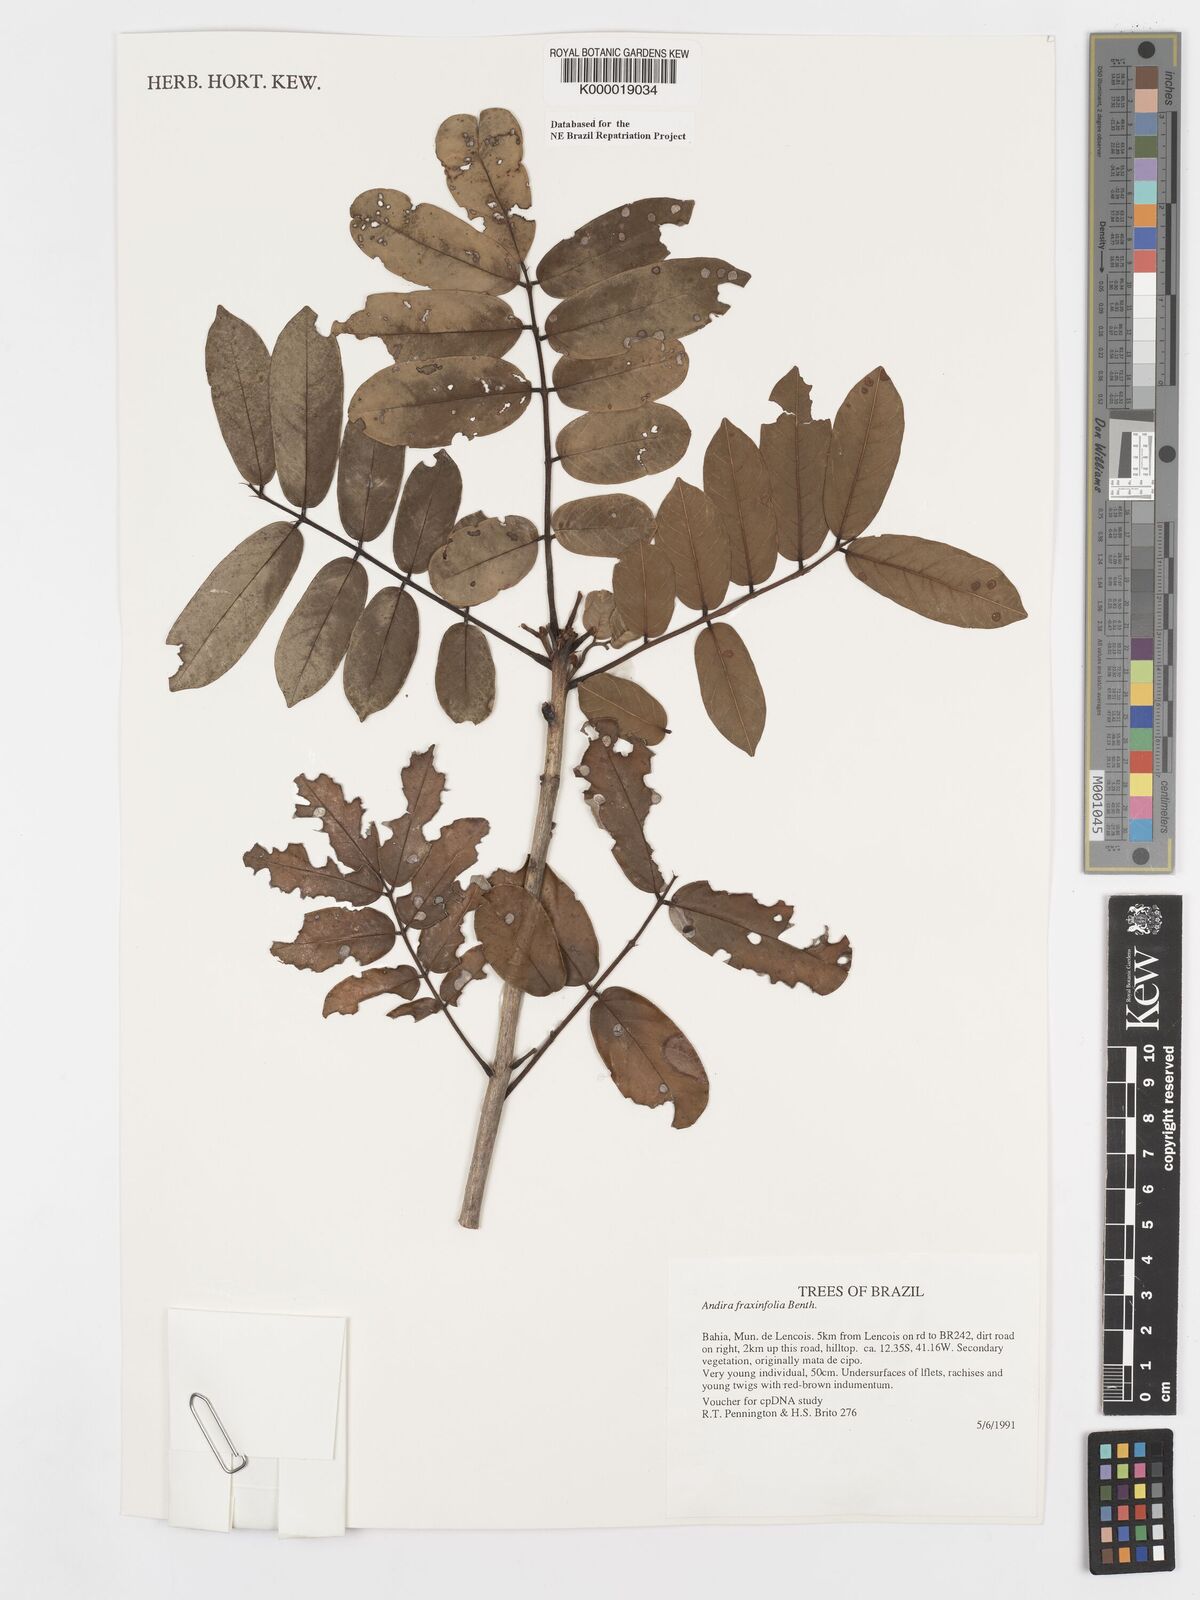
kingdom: Plantae
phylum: Tracheophyta
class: Magnoliopsida
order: Fabales
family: Fabaceae
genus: Andira
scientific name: Andira fraxinifolia
